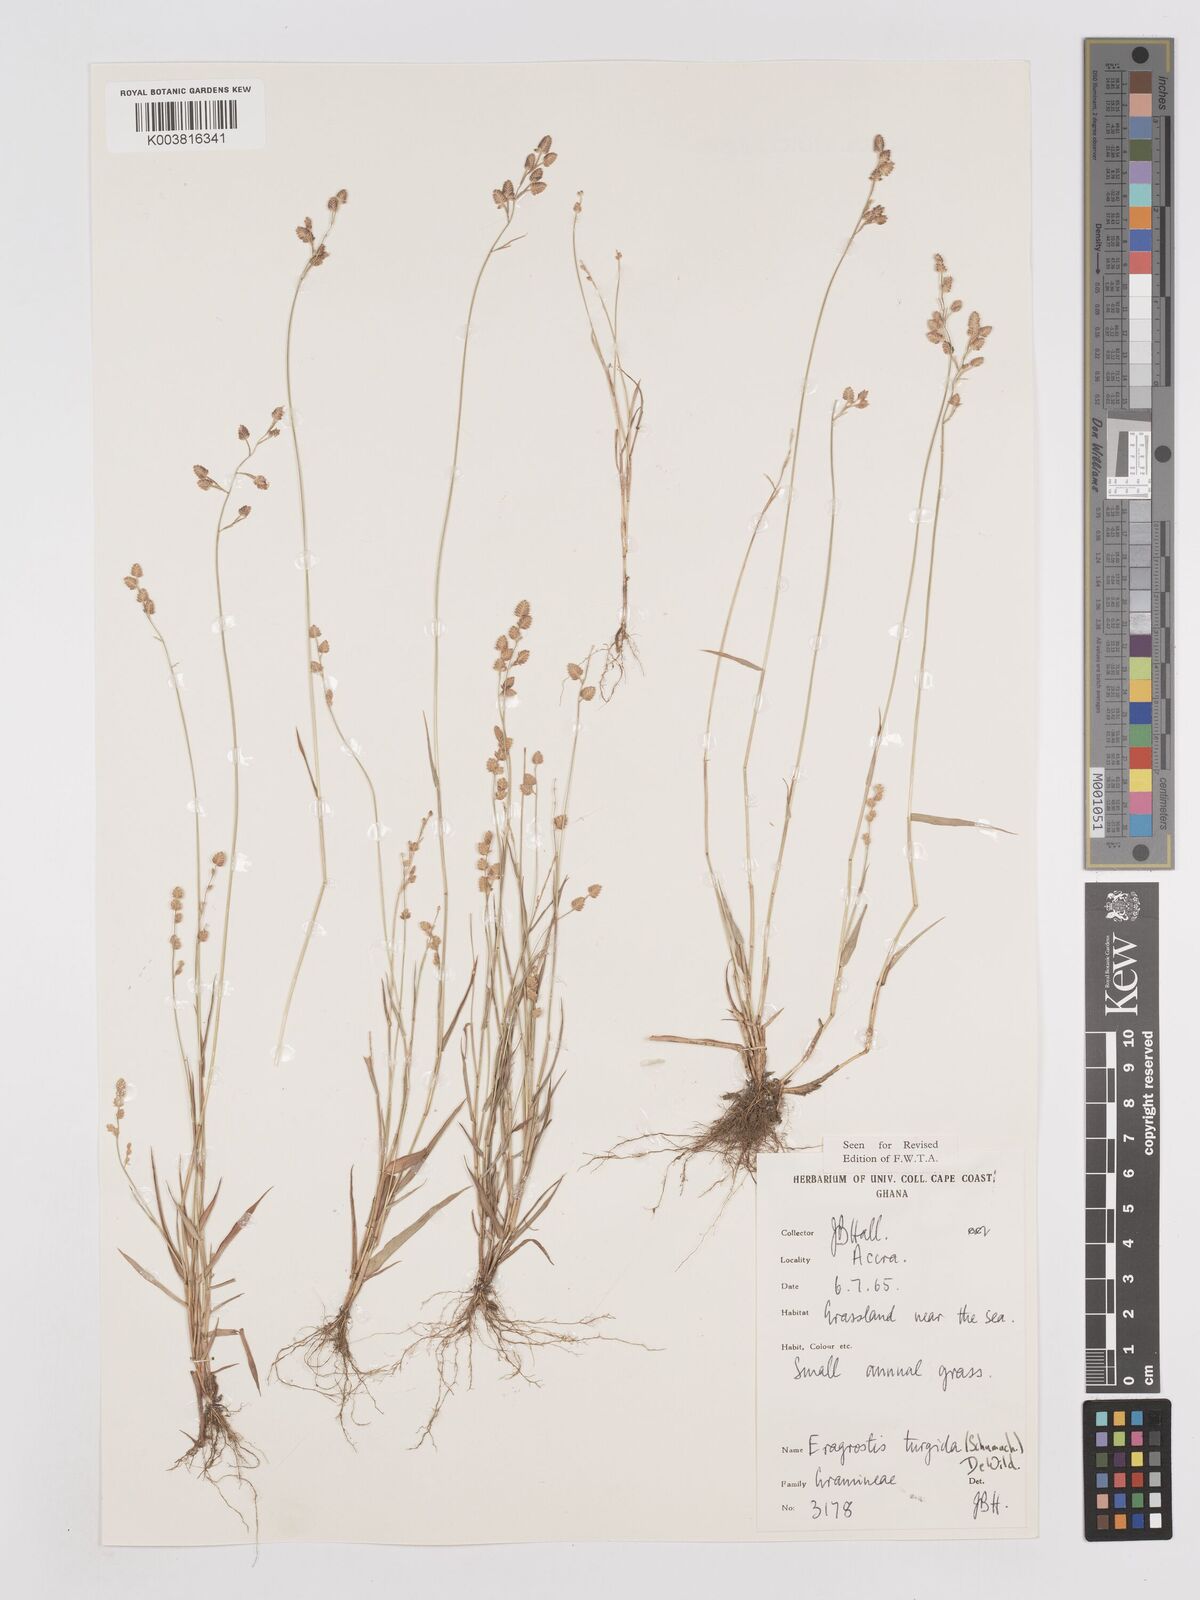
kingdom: Plantae
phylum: Tracheophyta
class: Liliopsida
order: Poales
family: Poaceae
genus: Eragrostis
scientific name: Eragrostis turgida
